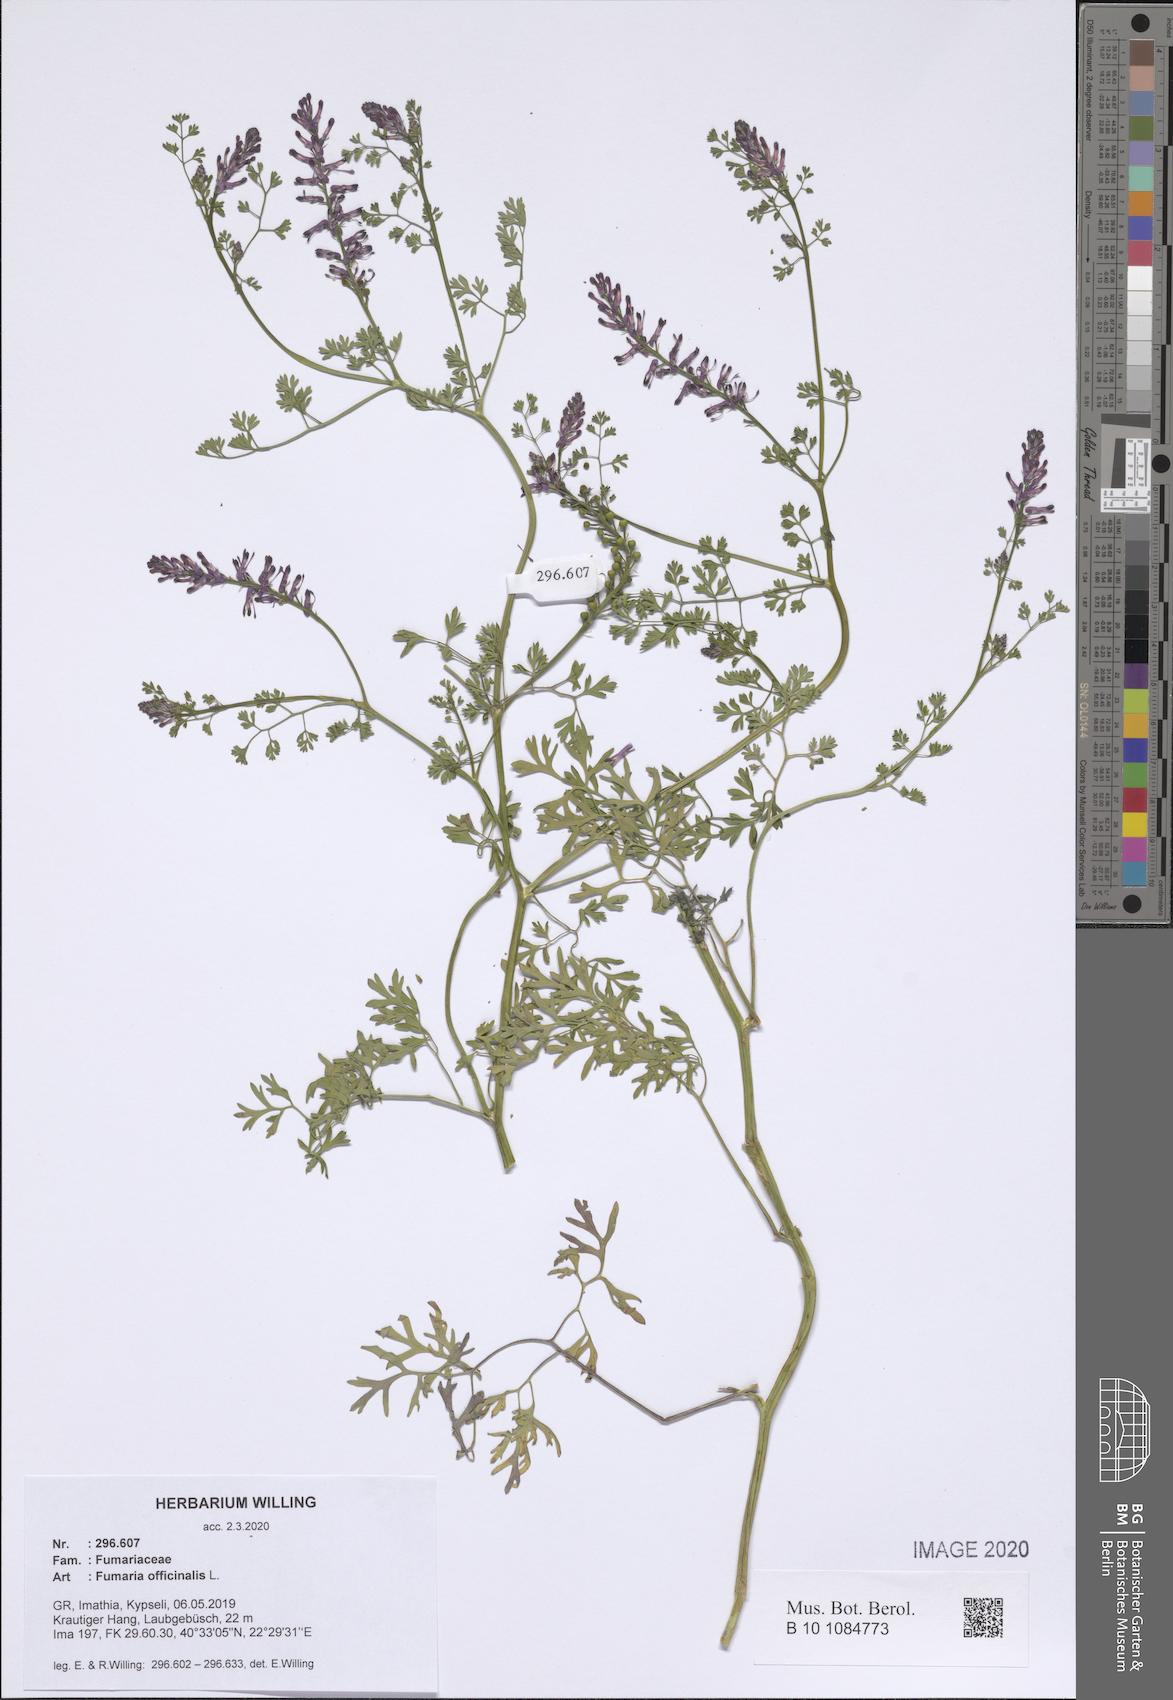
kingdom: Plantae
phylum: Tracheophyta
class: Magnoliopsida
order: Ranunculales
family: Papaveraceae
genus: Fumaria
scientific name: Fumaria officinalis
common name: Common fumitory
